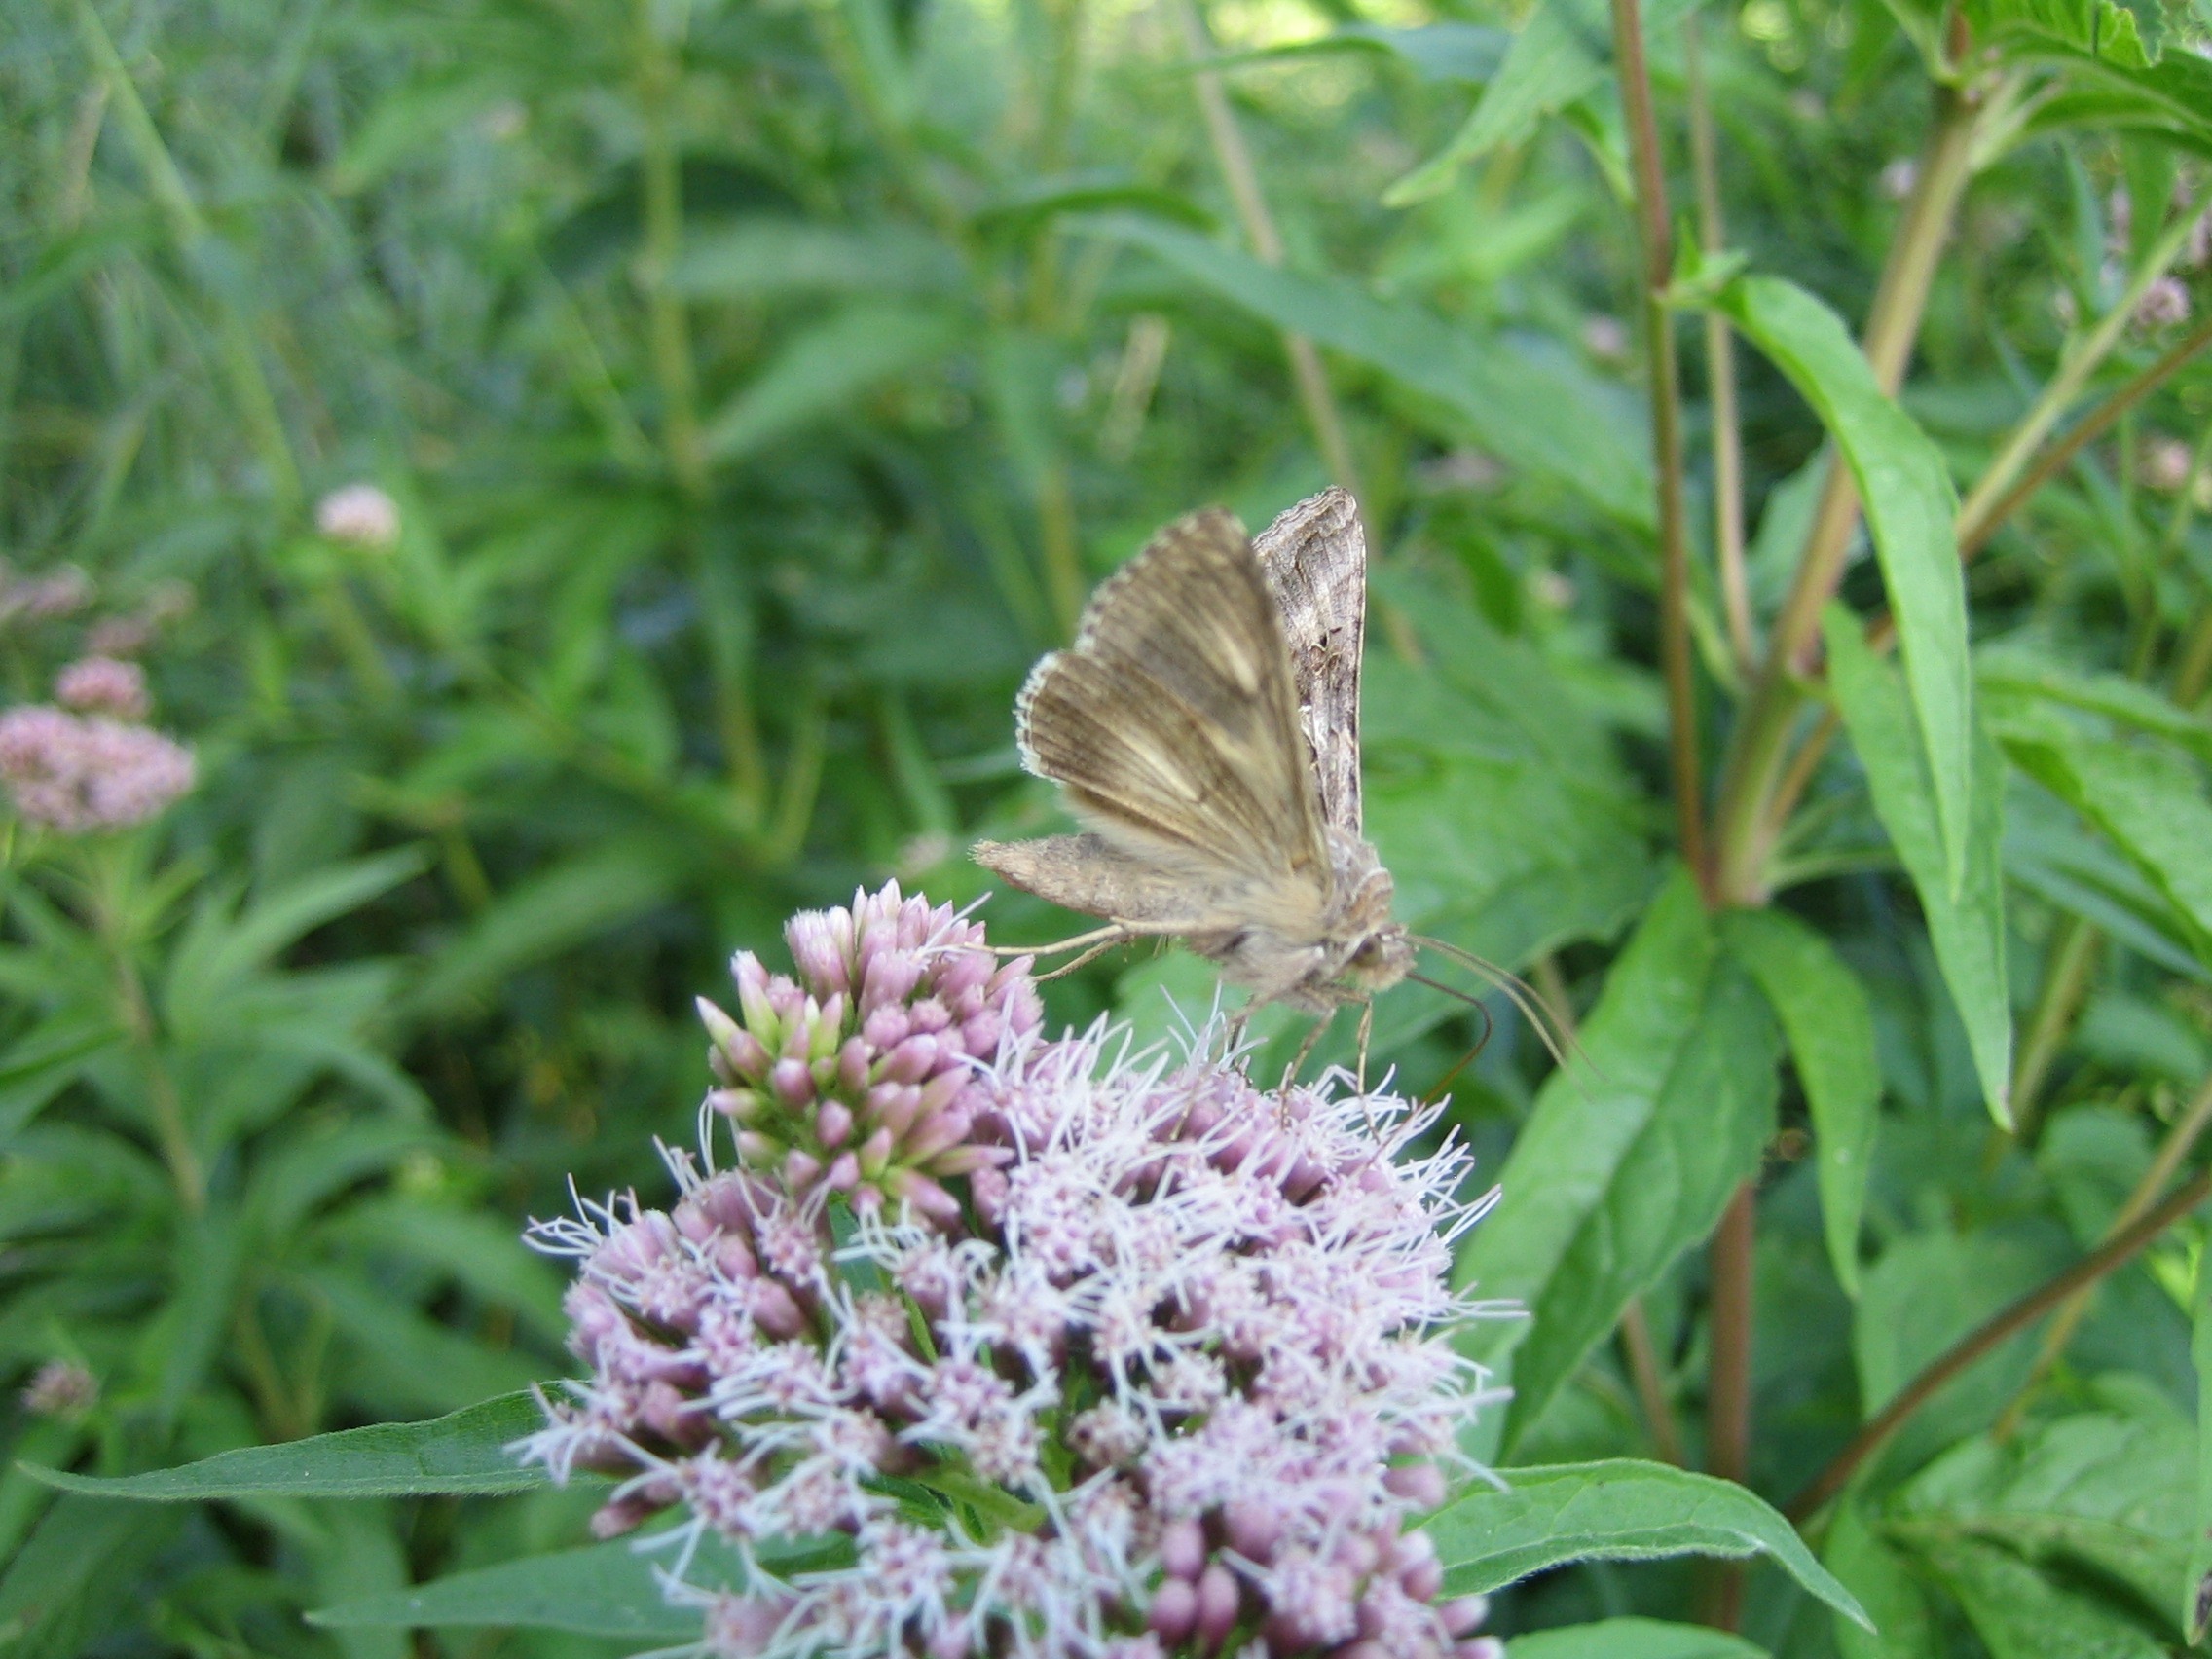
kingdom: Animalia
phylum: Arthropoda
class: Insecta
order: Lepidoptera
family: Noctuidae
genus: Autographa
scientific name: Autographa gamma
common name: Gammaugle
